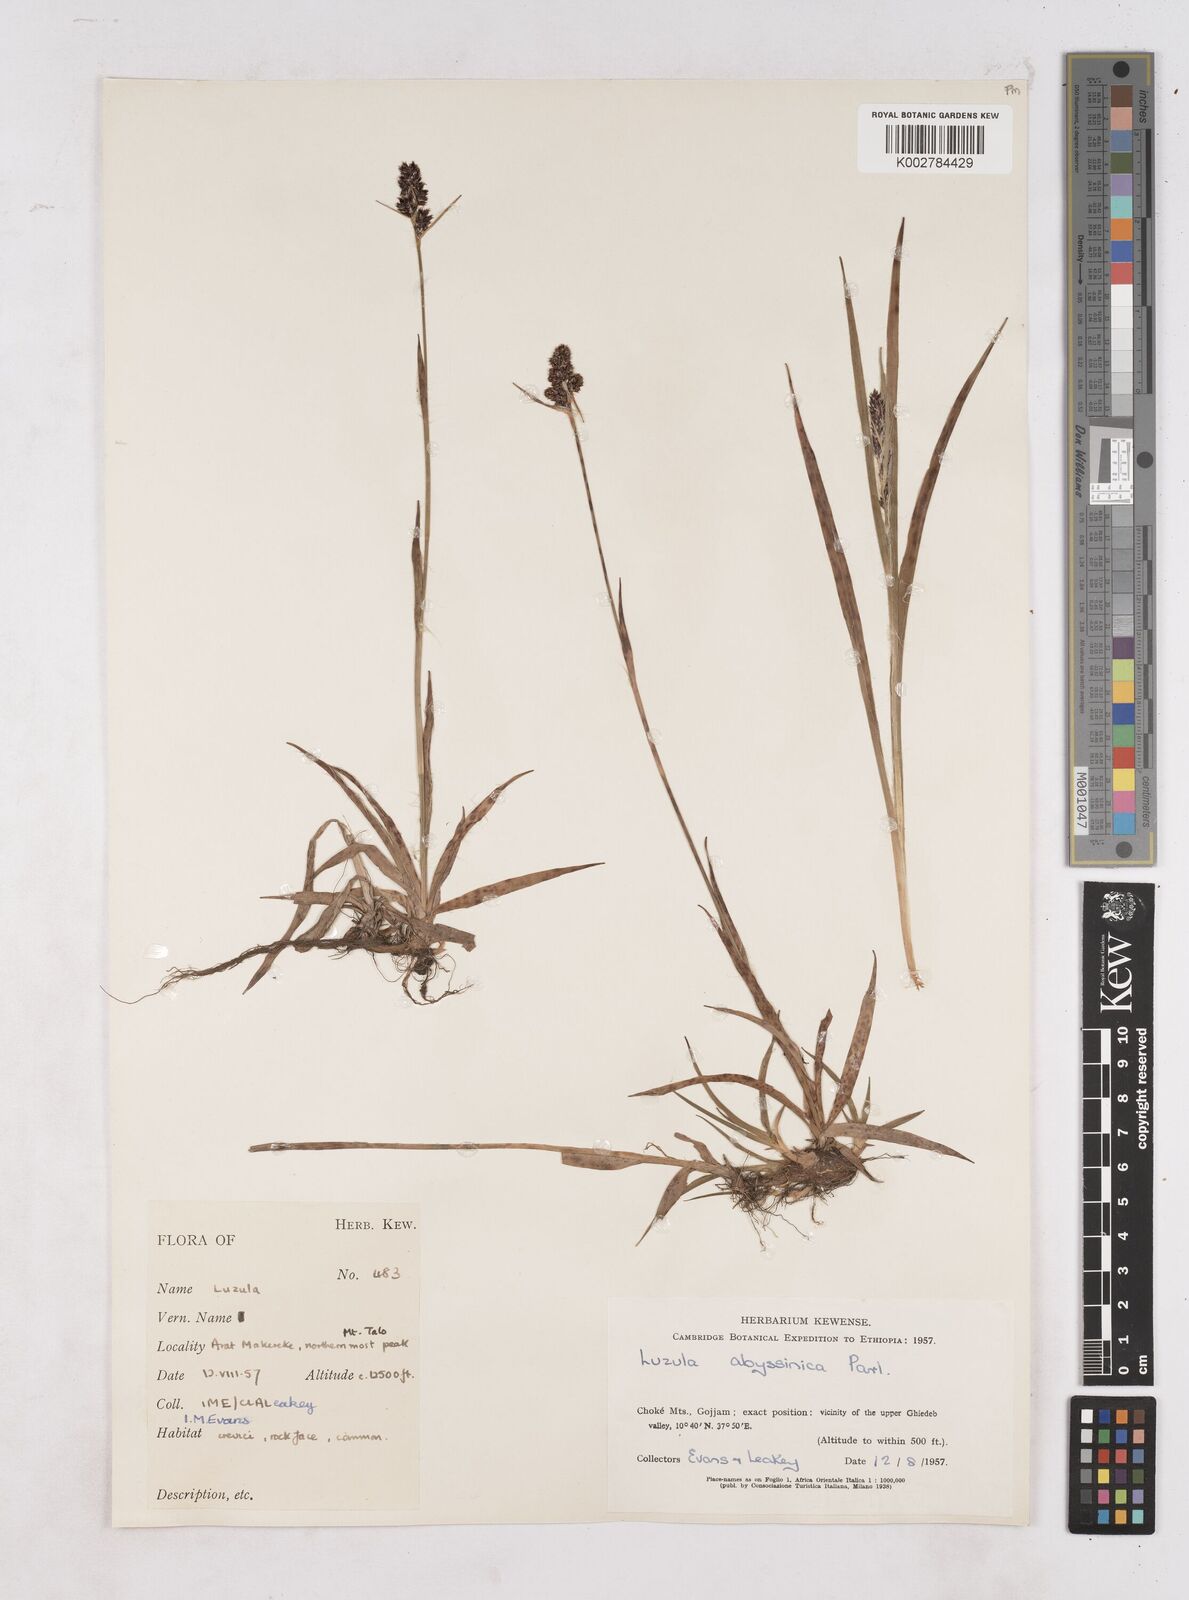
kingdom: Plantae
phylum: Tracheophyta
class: Liliopsida
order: Poales
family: Juncaceae
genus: Luzula
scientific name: Luzula abyssinica
